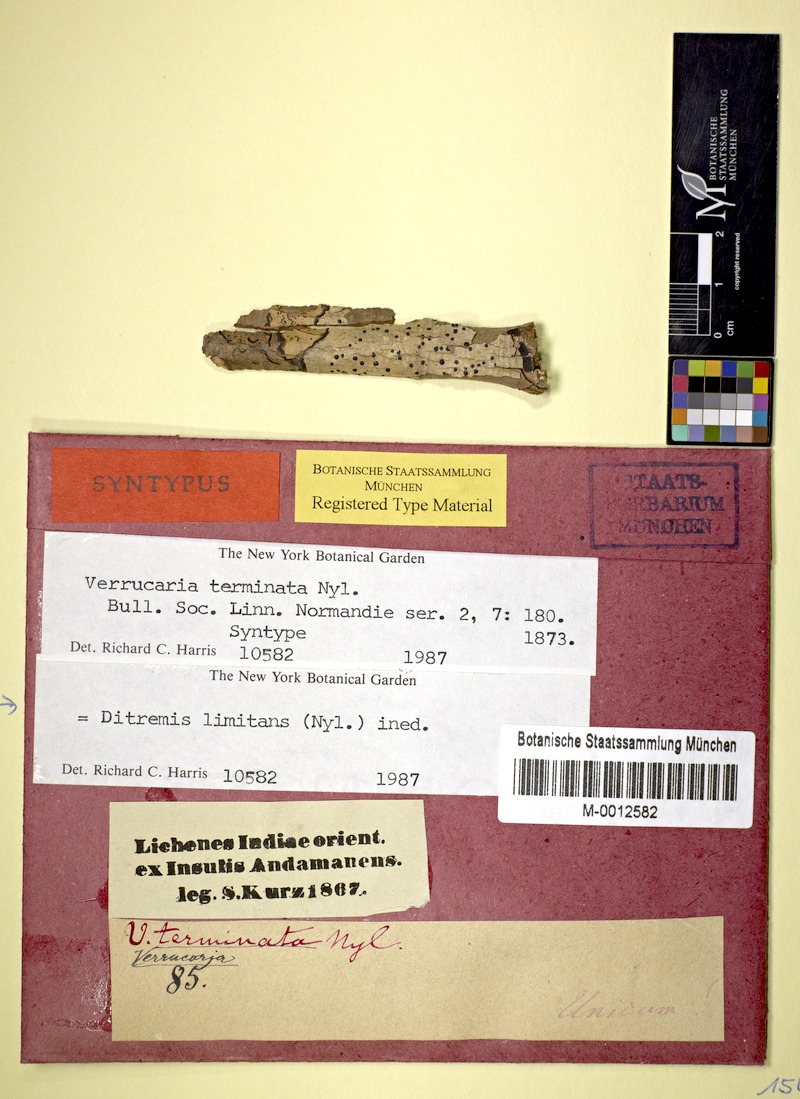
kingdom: Fungi
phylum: Ascomycota
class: Dothideomycetes
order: Monoblastiales
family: Monoblastiaceae
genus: Anisomeridium
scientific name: Anisomeridium terminatum
